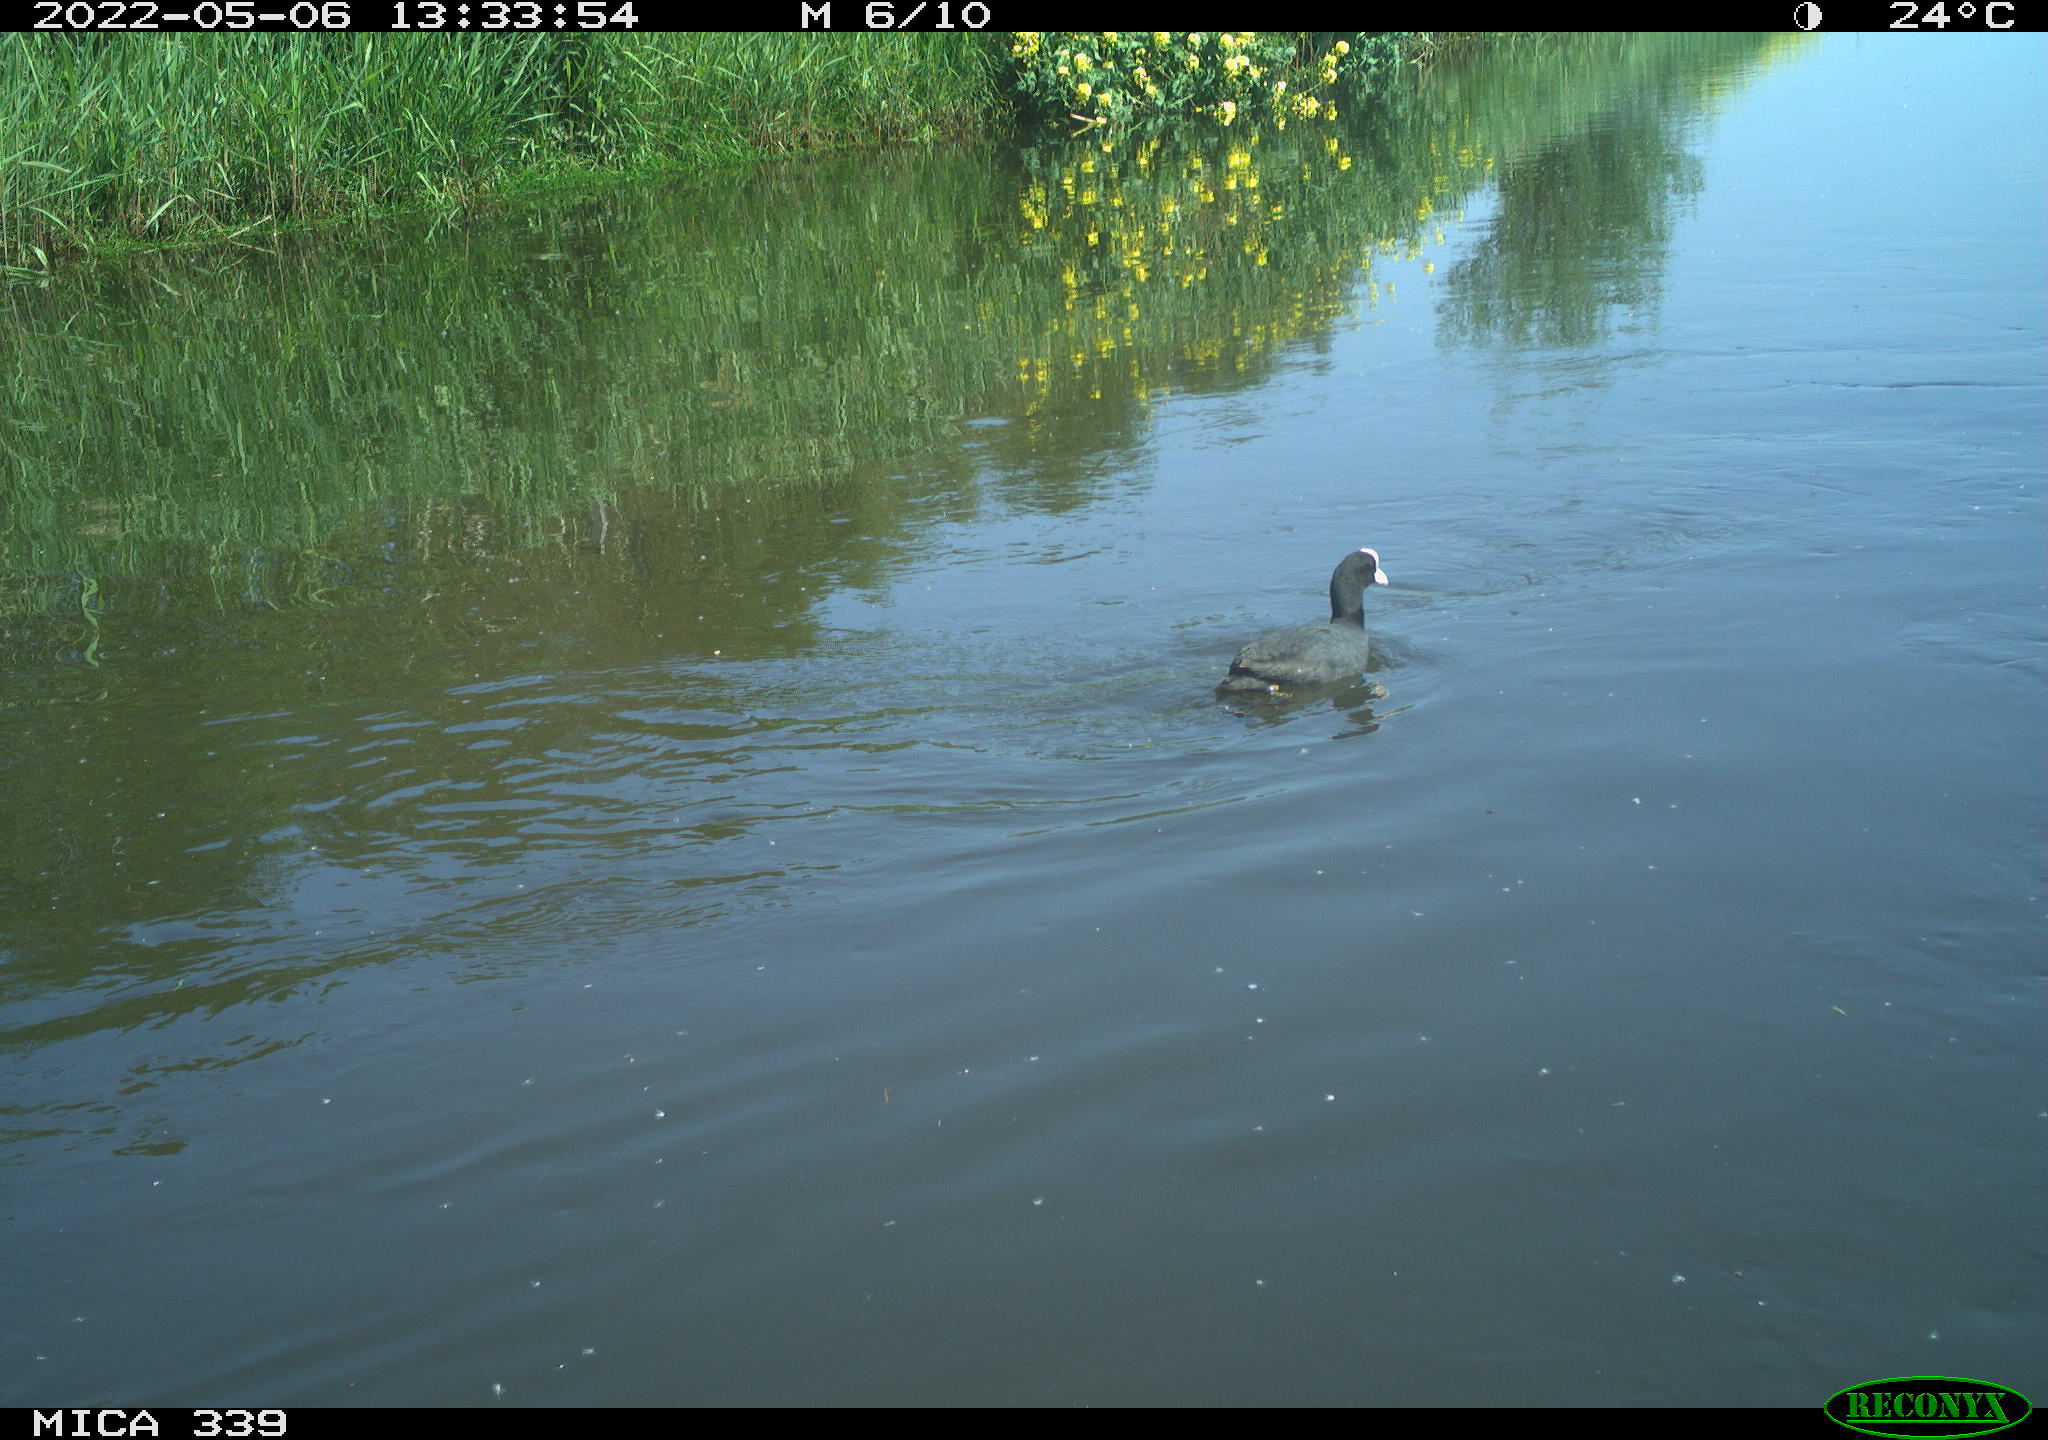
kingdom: Animalia
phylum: Chordata
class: Aves
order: Gruiformes
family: Rallidae
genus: Fulica
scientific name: Fulica atra
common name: Eurasian coot
